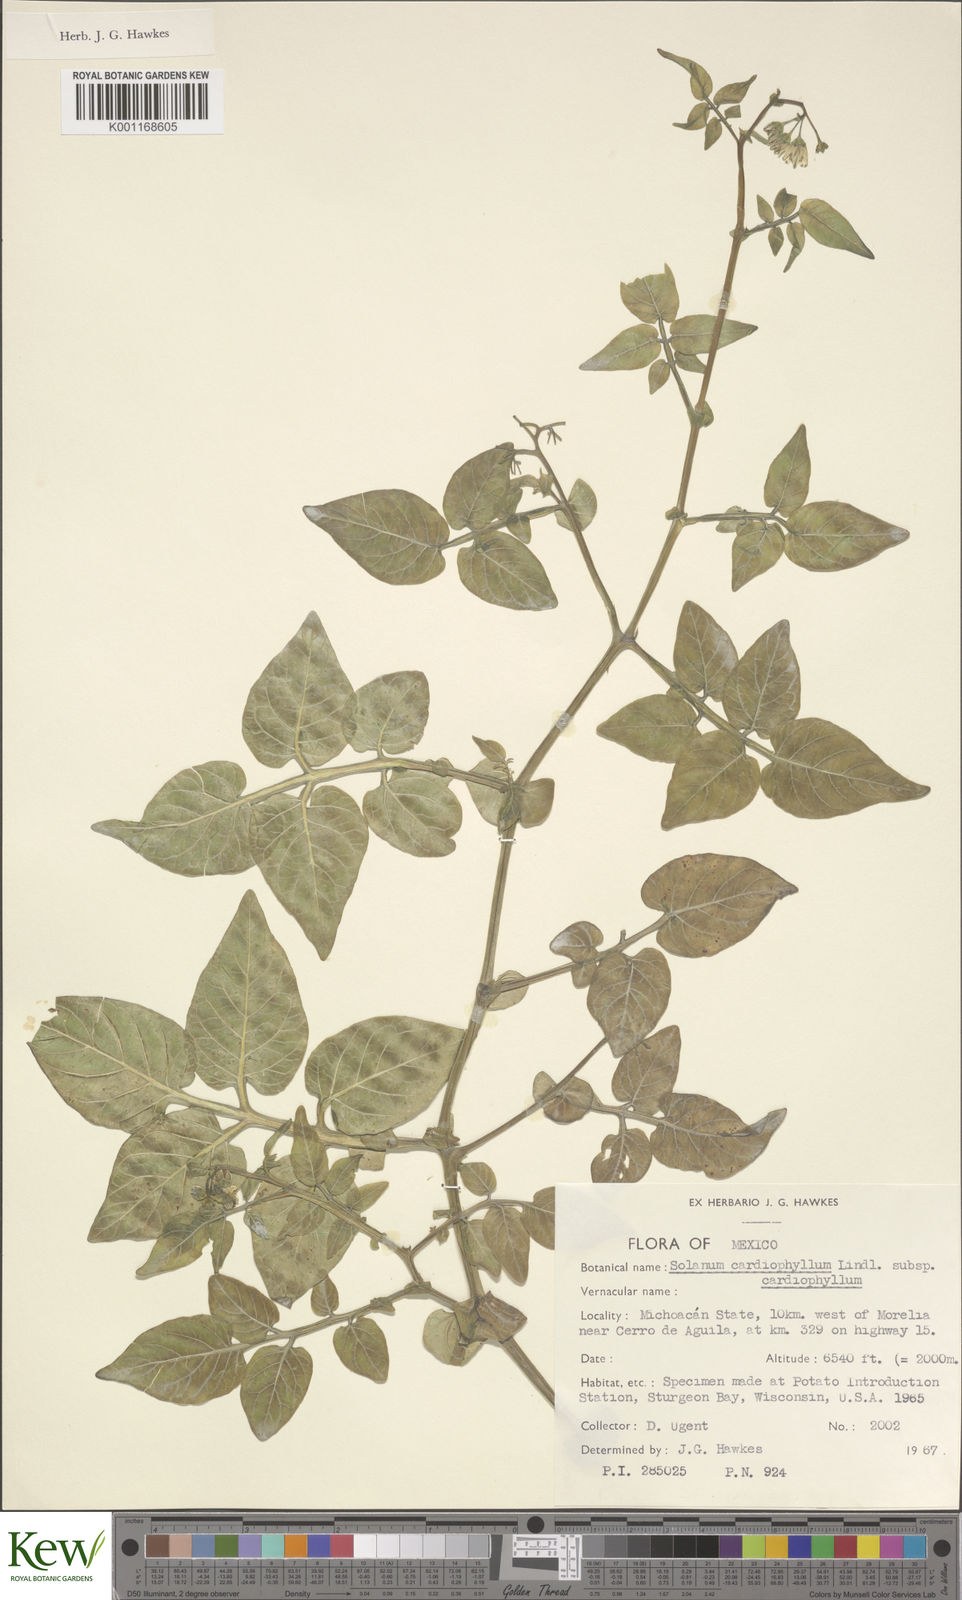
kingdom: Plantae
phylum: Tracheophyta
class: Magnoliopsida
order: Solanales
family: Solanaceae
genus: Solanum
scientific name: Solanum cardiophyllum
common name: Heartleaf horsenettle
